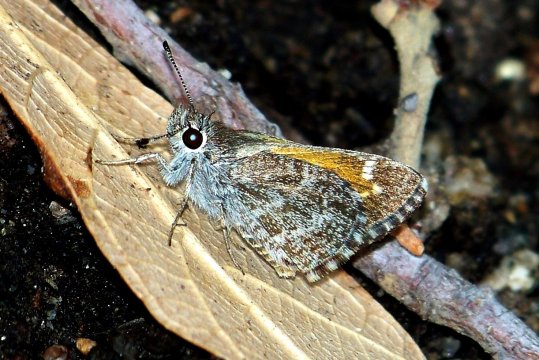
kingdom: Animalia
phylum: Arthropoda
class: Insecta
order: Lepidoptera
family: Hesperiidae
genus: Mastor
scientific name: Mastor cassus
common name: Cassus Roadside-Skipper
